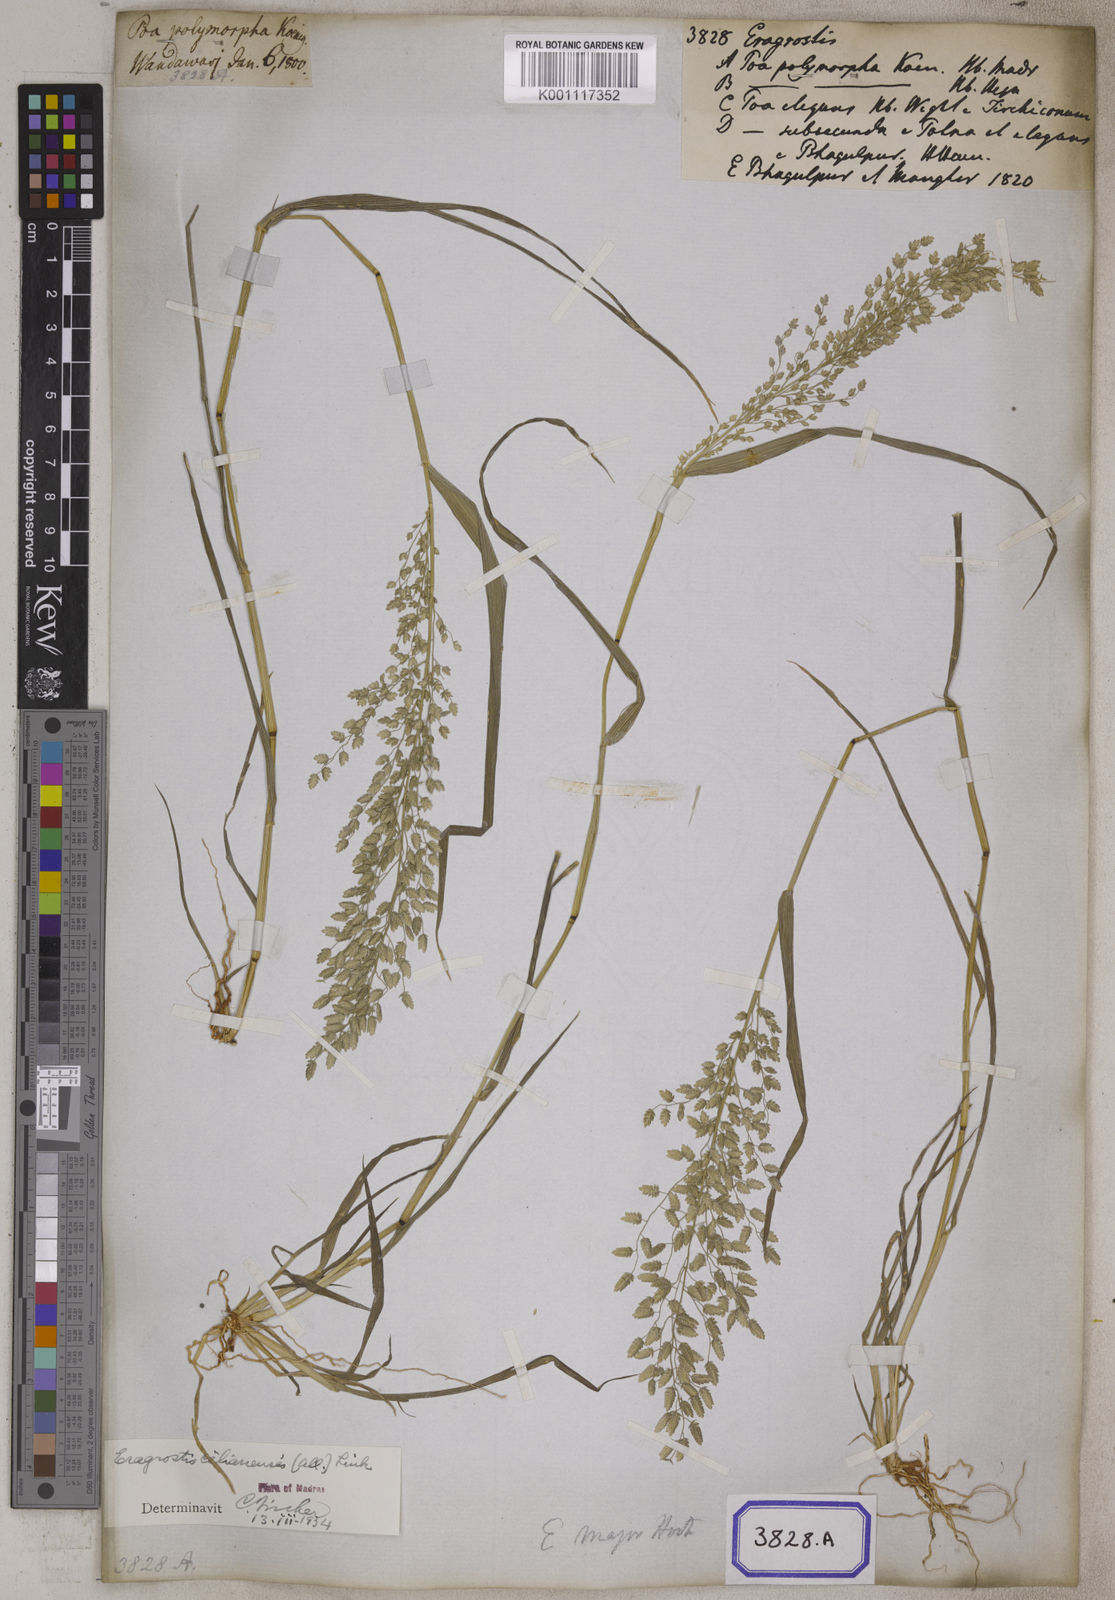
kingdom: Plantae
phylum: Tracheophyta
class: Liliopsida
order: Poales
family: Poaceae
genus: Eragrostis
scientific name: Eragrostis
